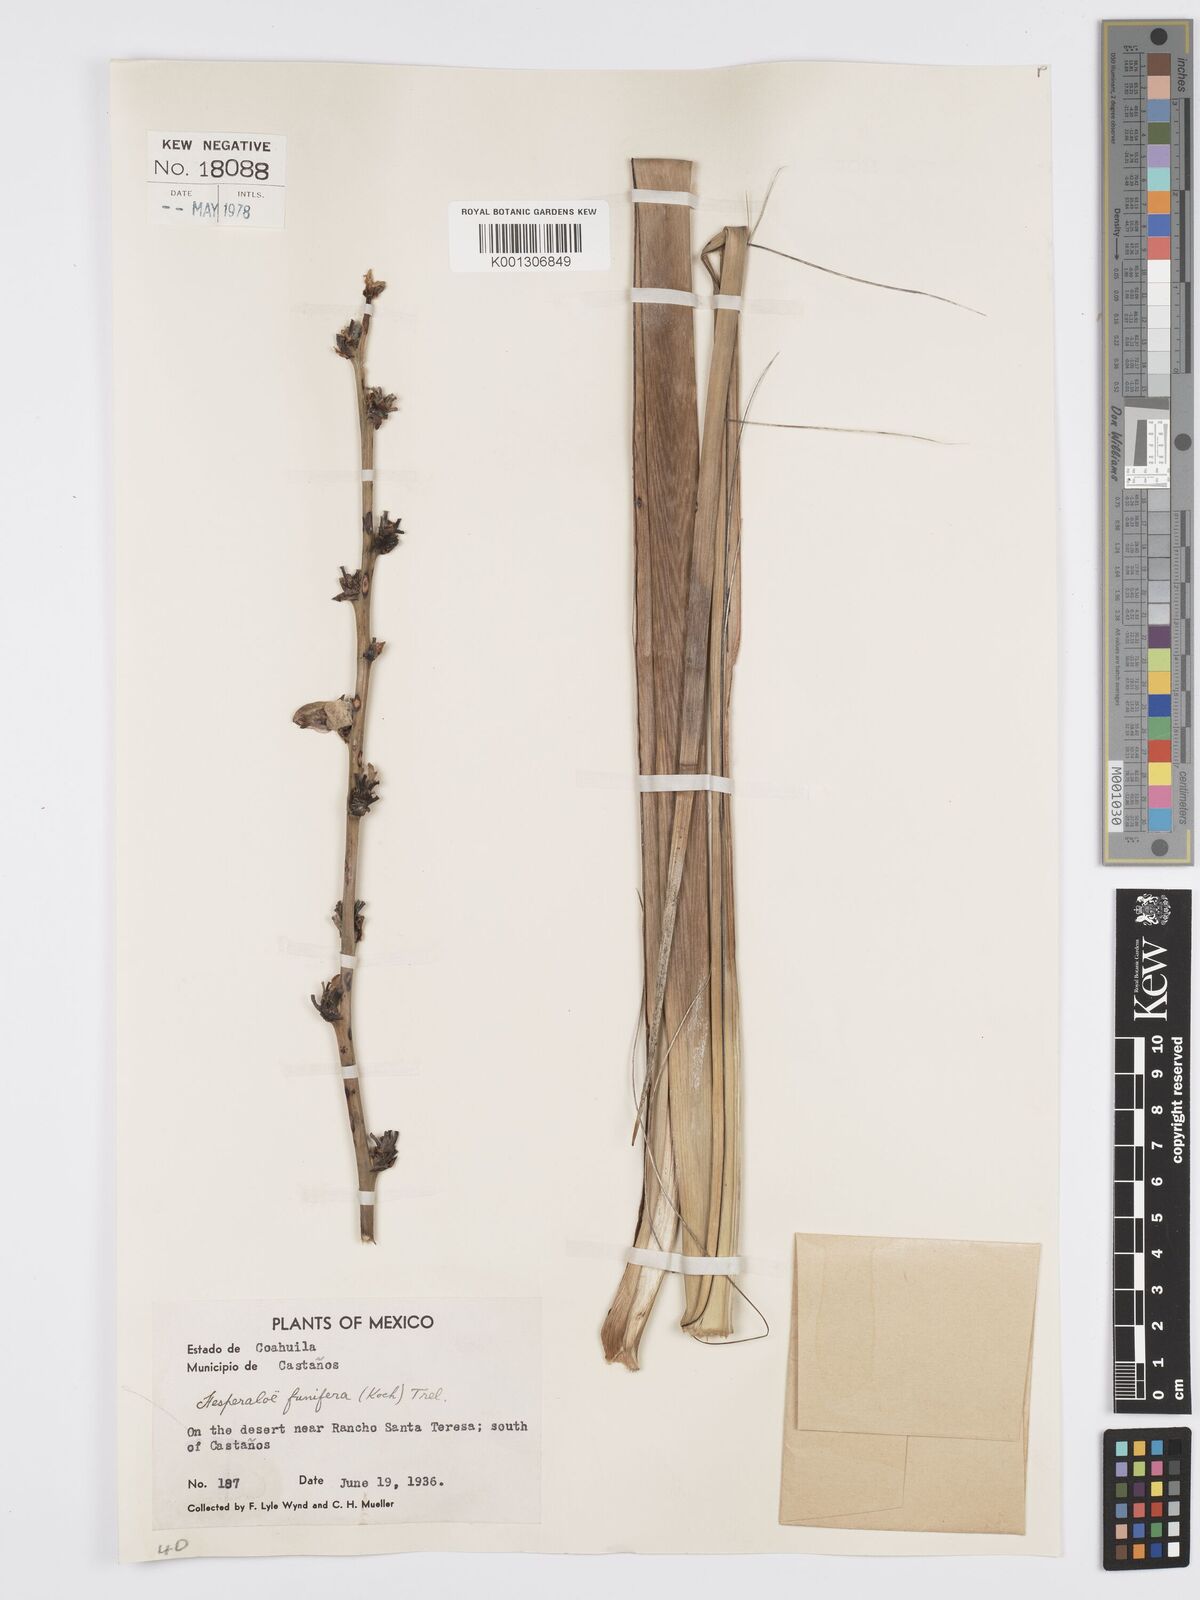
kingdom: Plantae
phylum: Tracheophyta
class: Liliopsida
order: Asparagales
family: Asparagaceae
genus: Hesperaloe
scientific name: Hesperaloe funifera
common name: Giant hesperaloe
